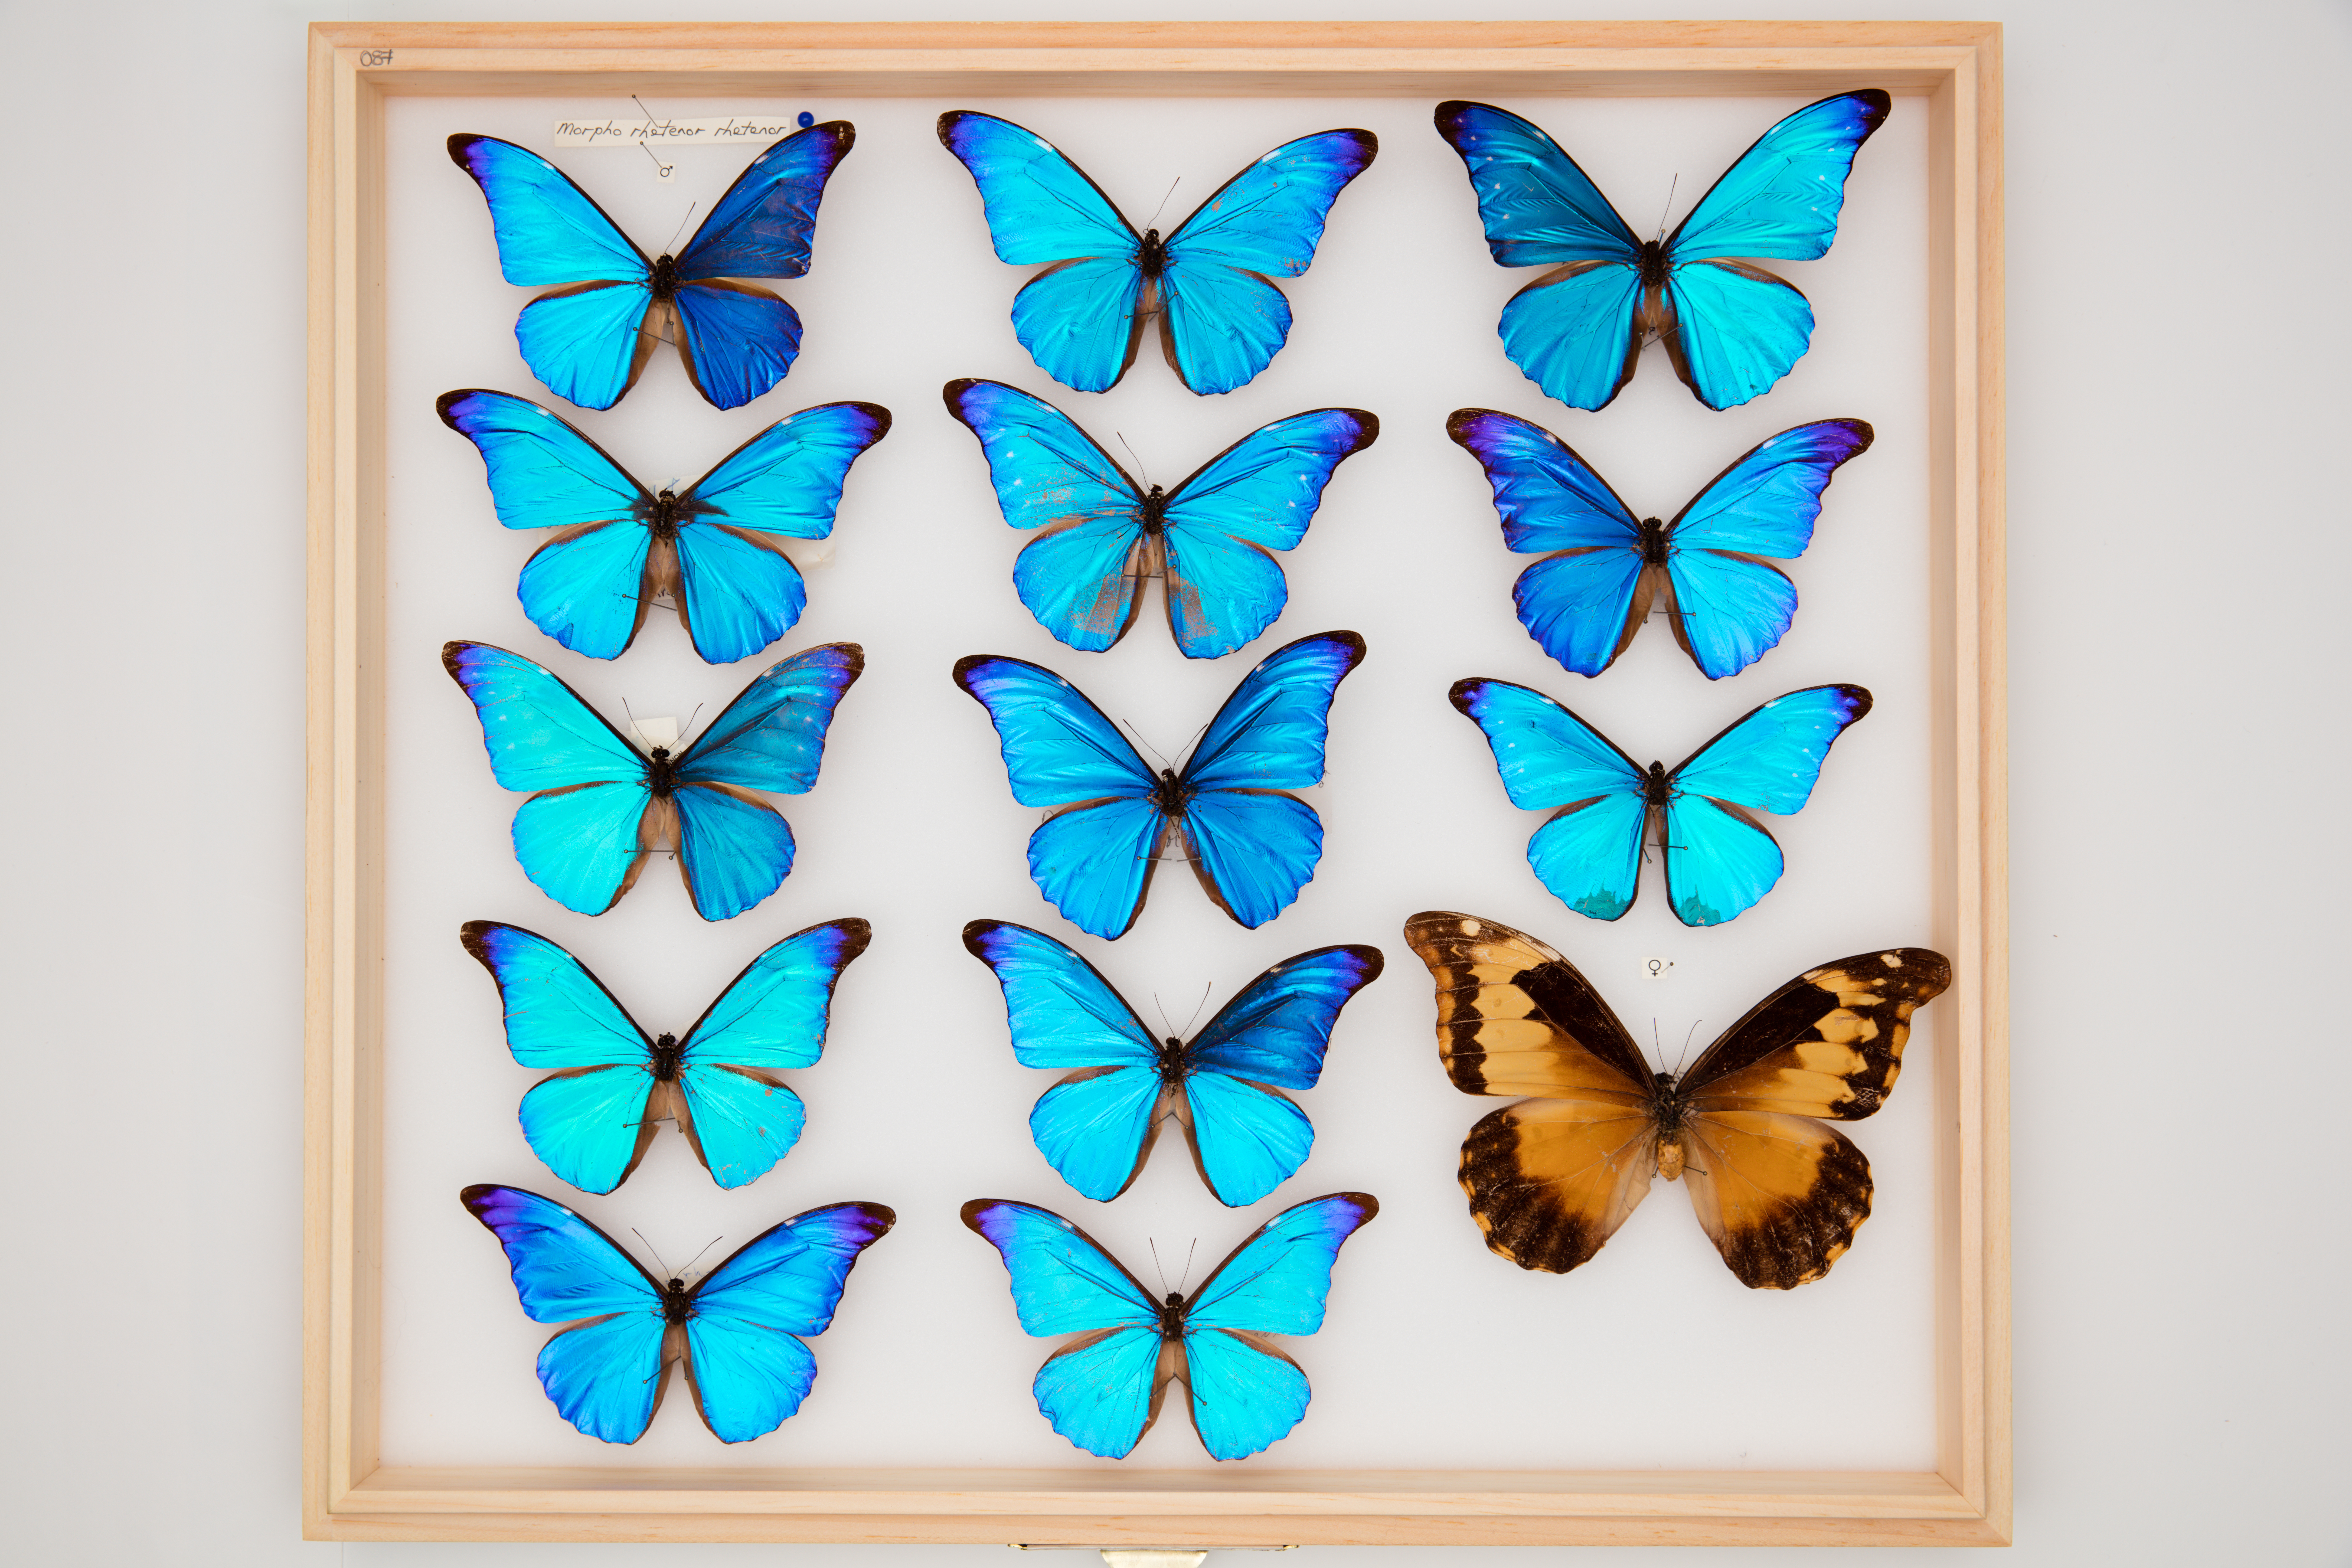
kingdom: Animalia
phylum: Arthropoda
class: Insecta
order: Lepidoptera
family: Nymphalidae
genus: Morpho
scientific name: Morpho rhetenor
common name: Rhetenor blue morpho
